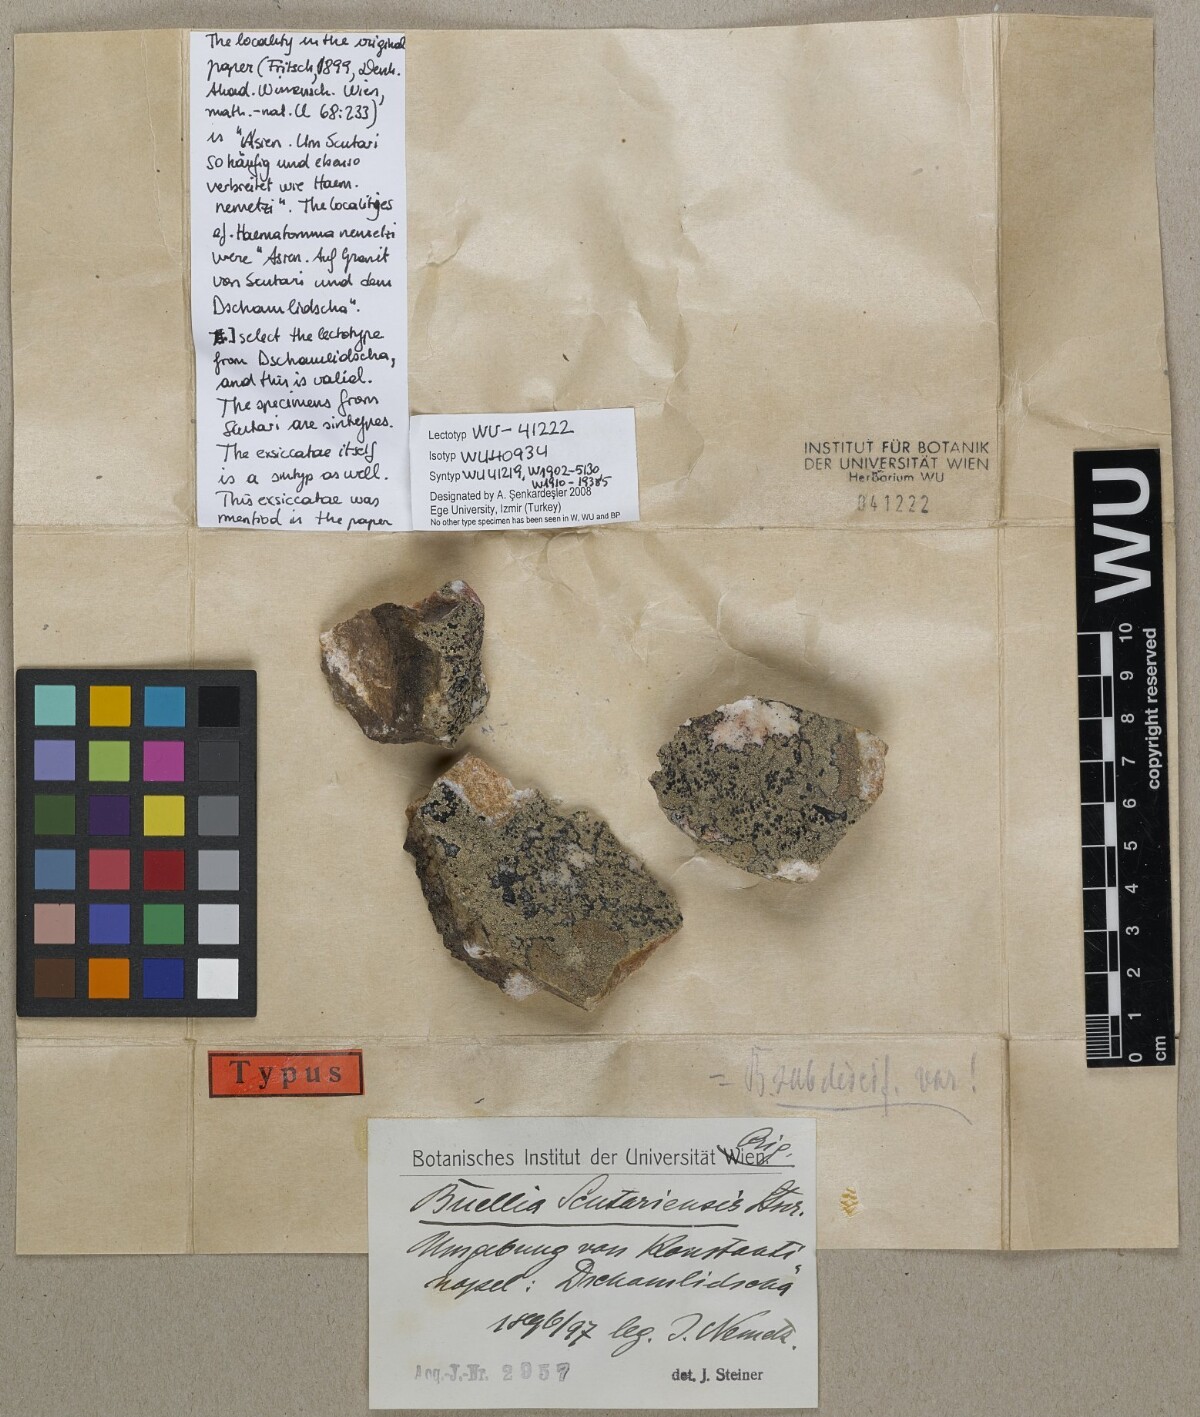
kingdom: Fungi
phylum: Ascomycota
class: Lecanoromycetes
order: Caliciales
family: Physciaceae
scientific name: Physciaceae
